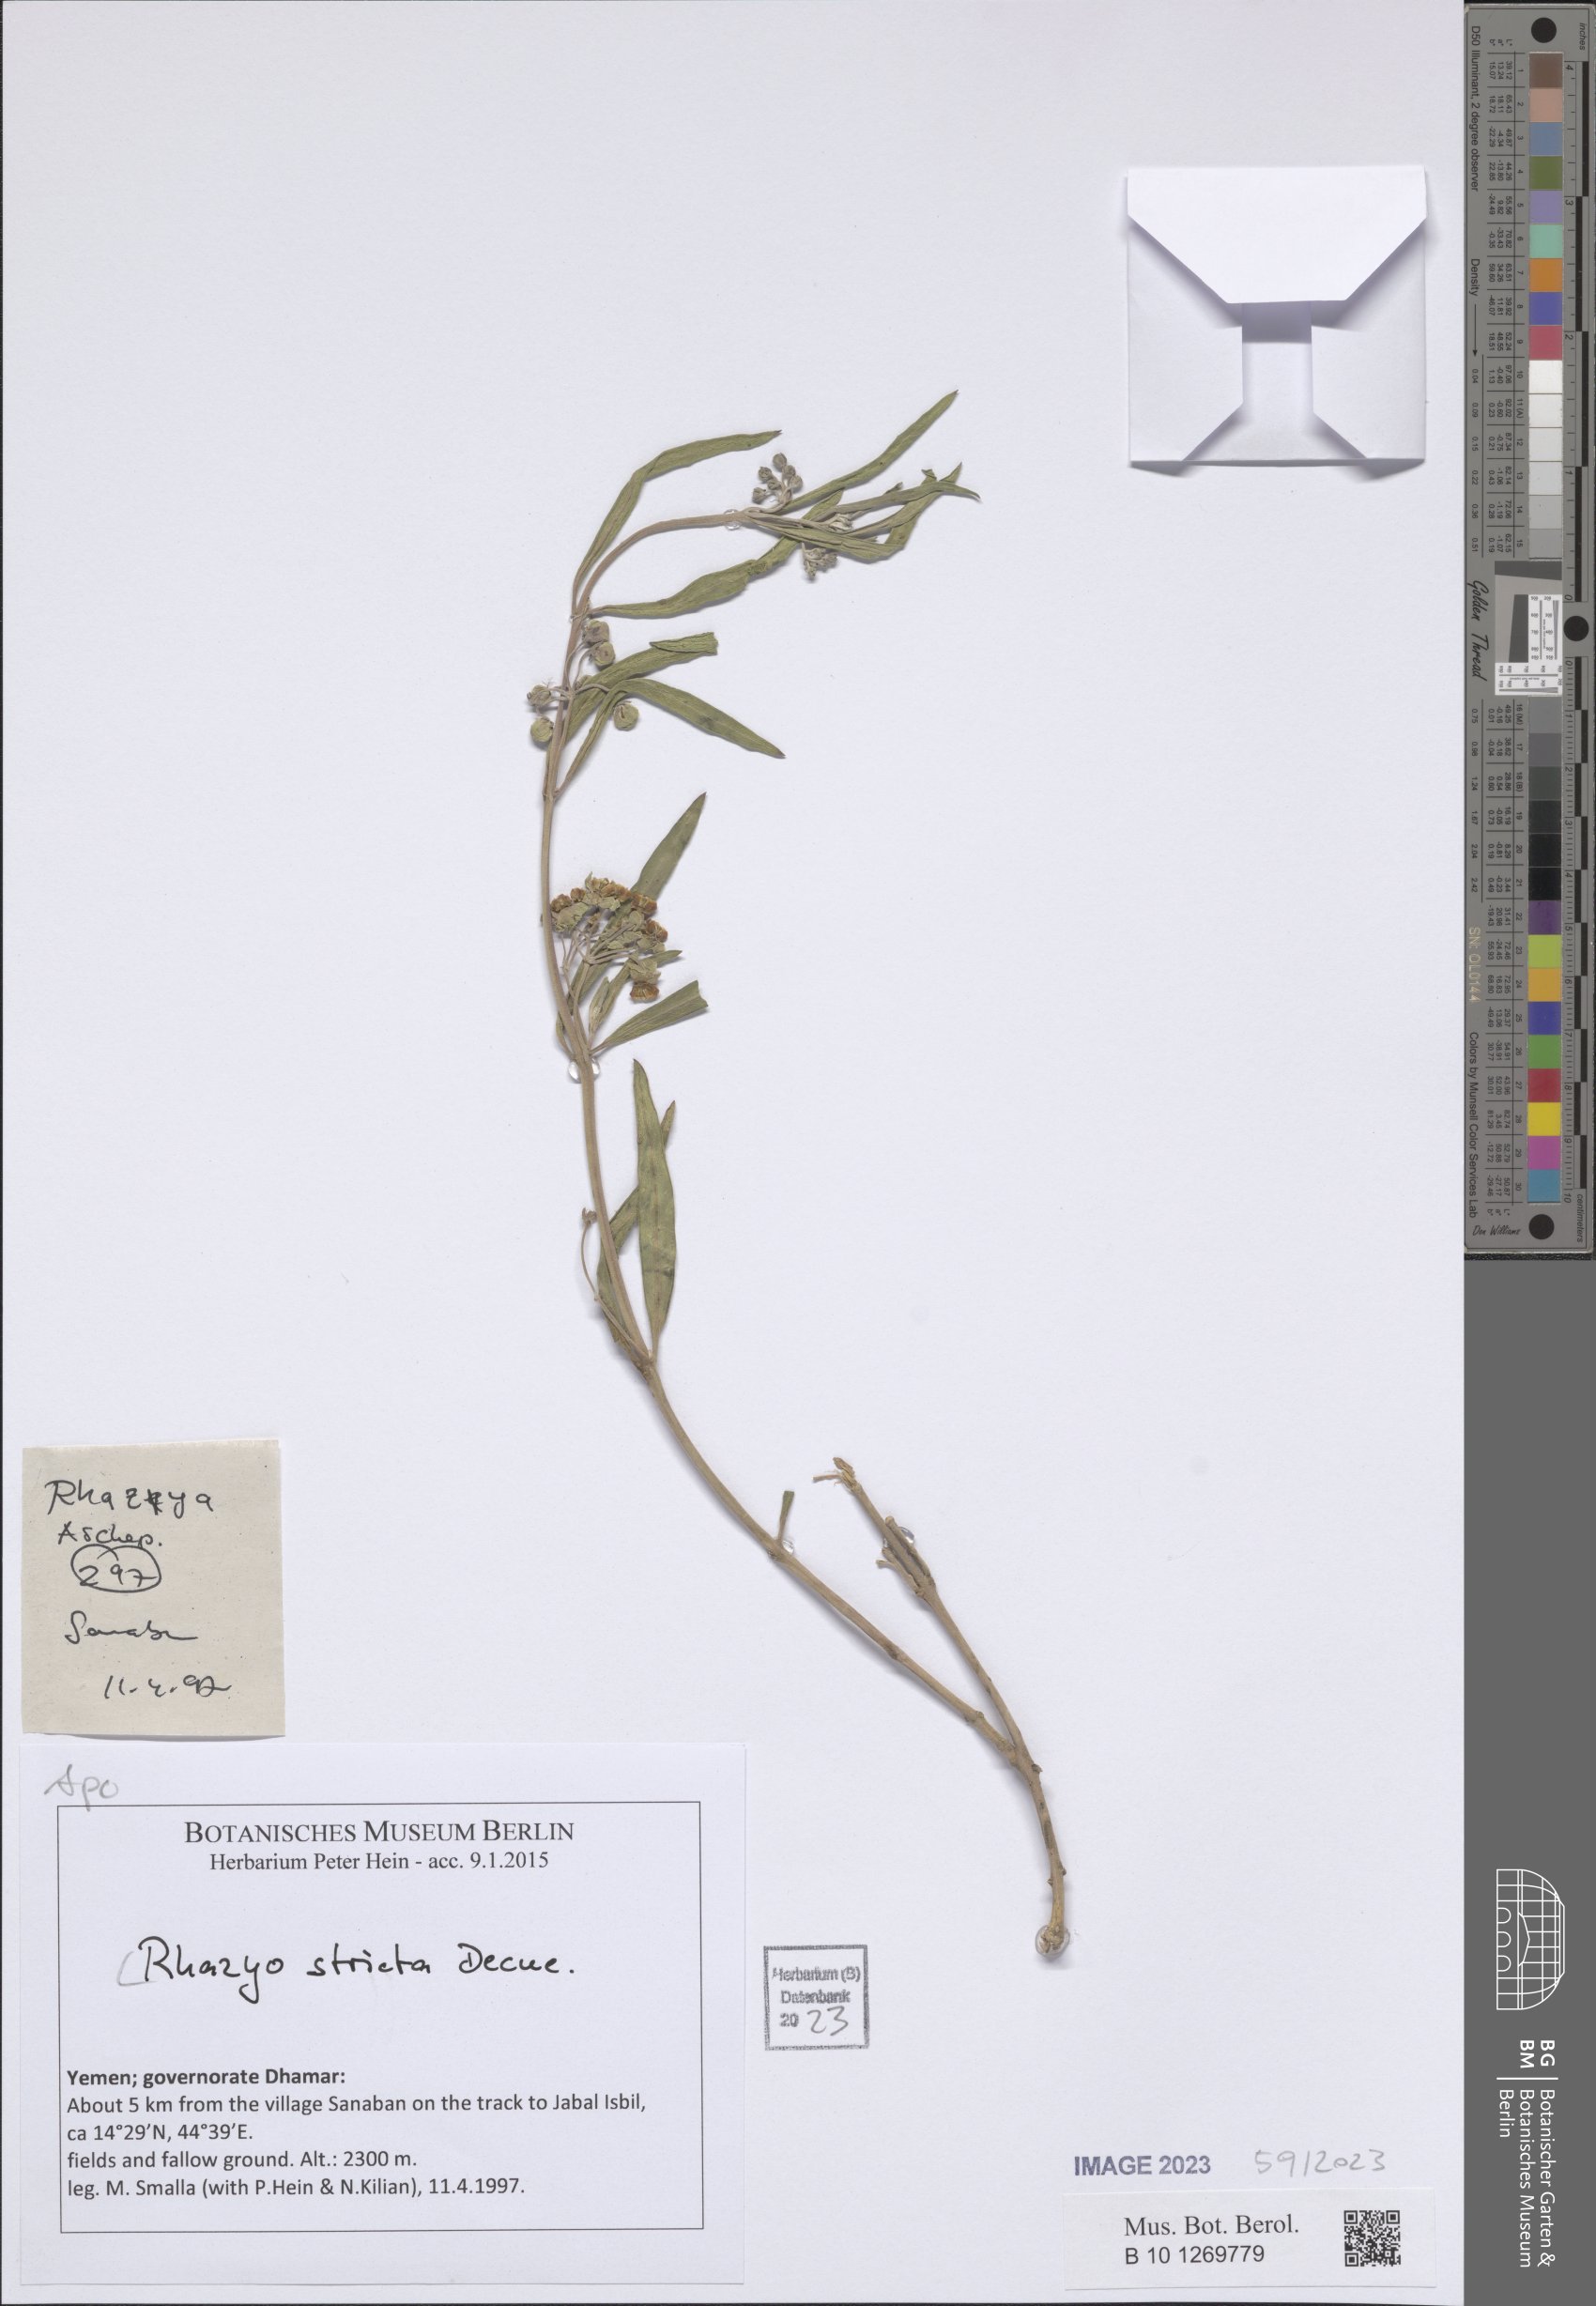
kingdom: Plantae
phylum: Tracheophyta
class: Magnoliopsida
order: Gentianales
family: Apocynaceae
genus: Rhazya
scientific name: Rhazya stricta
